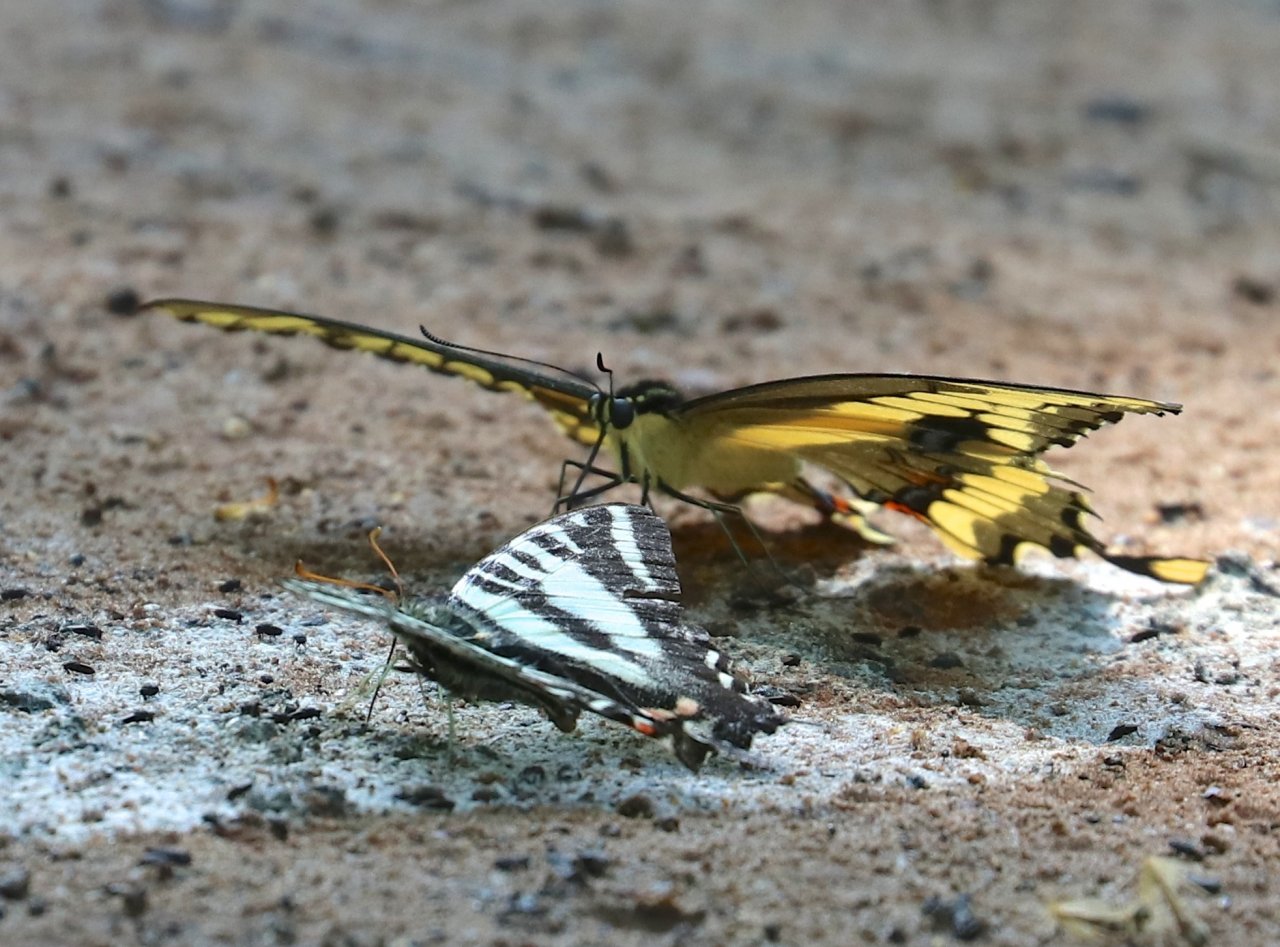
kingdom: Animalia
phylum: Arthropoda
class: Insecta
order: Lepidoptera
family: Papilionidae
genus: Protographium
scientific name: Protographium marcellus
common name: Zebra Swallowtail
